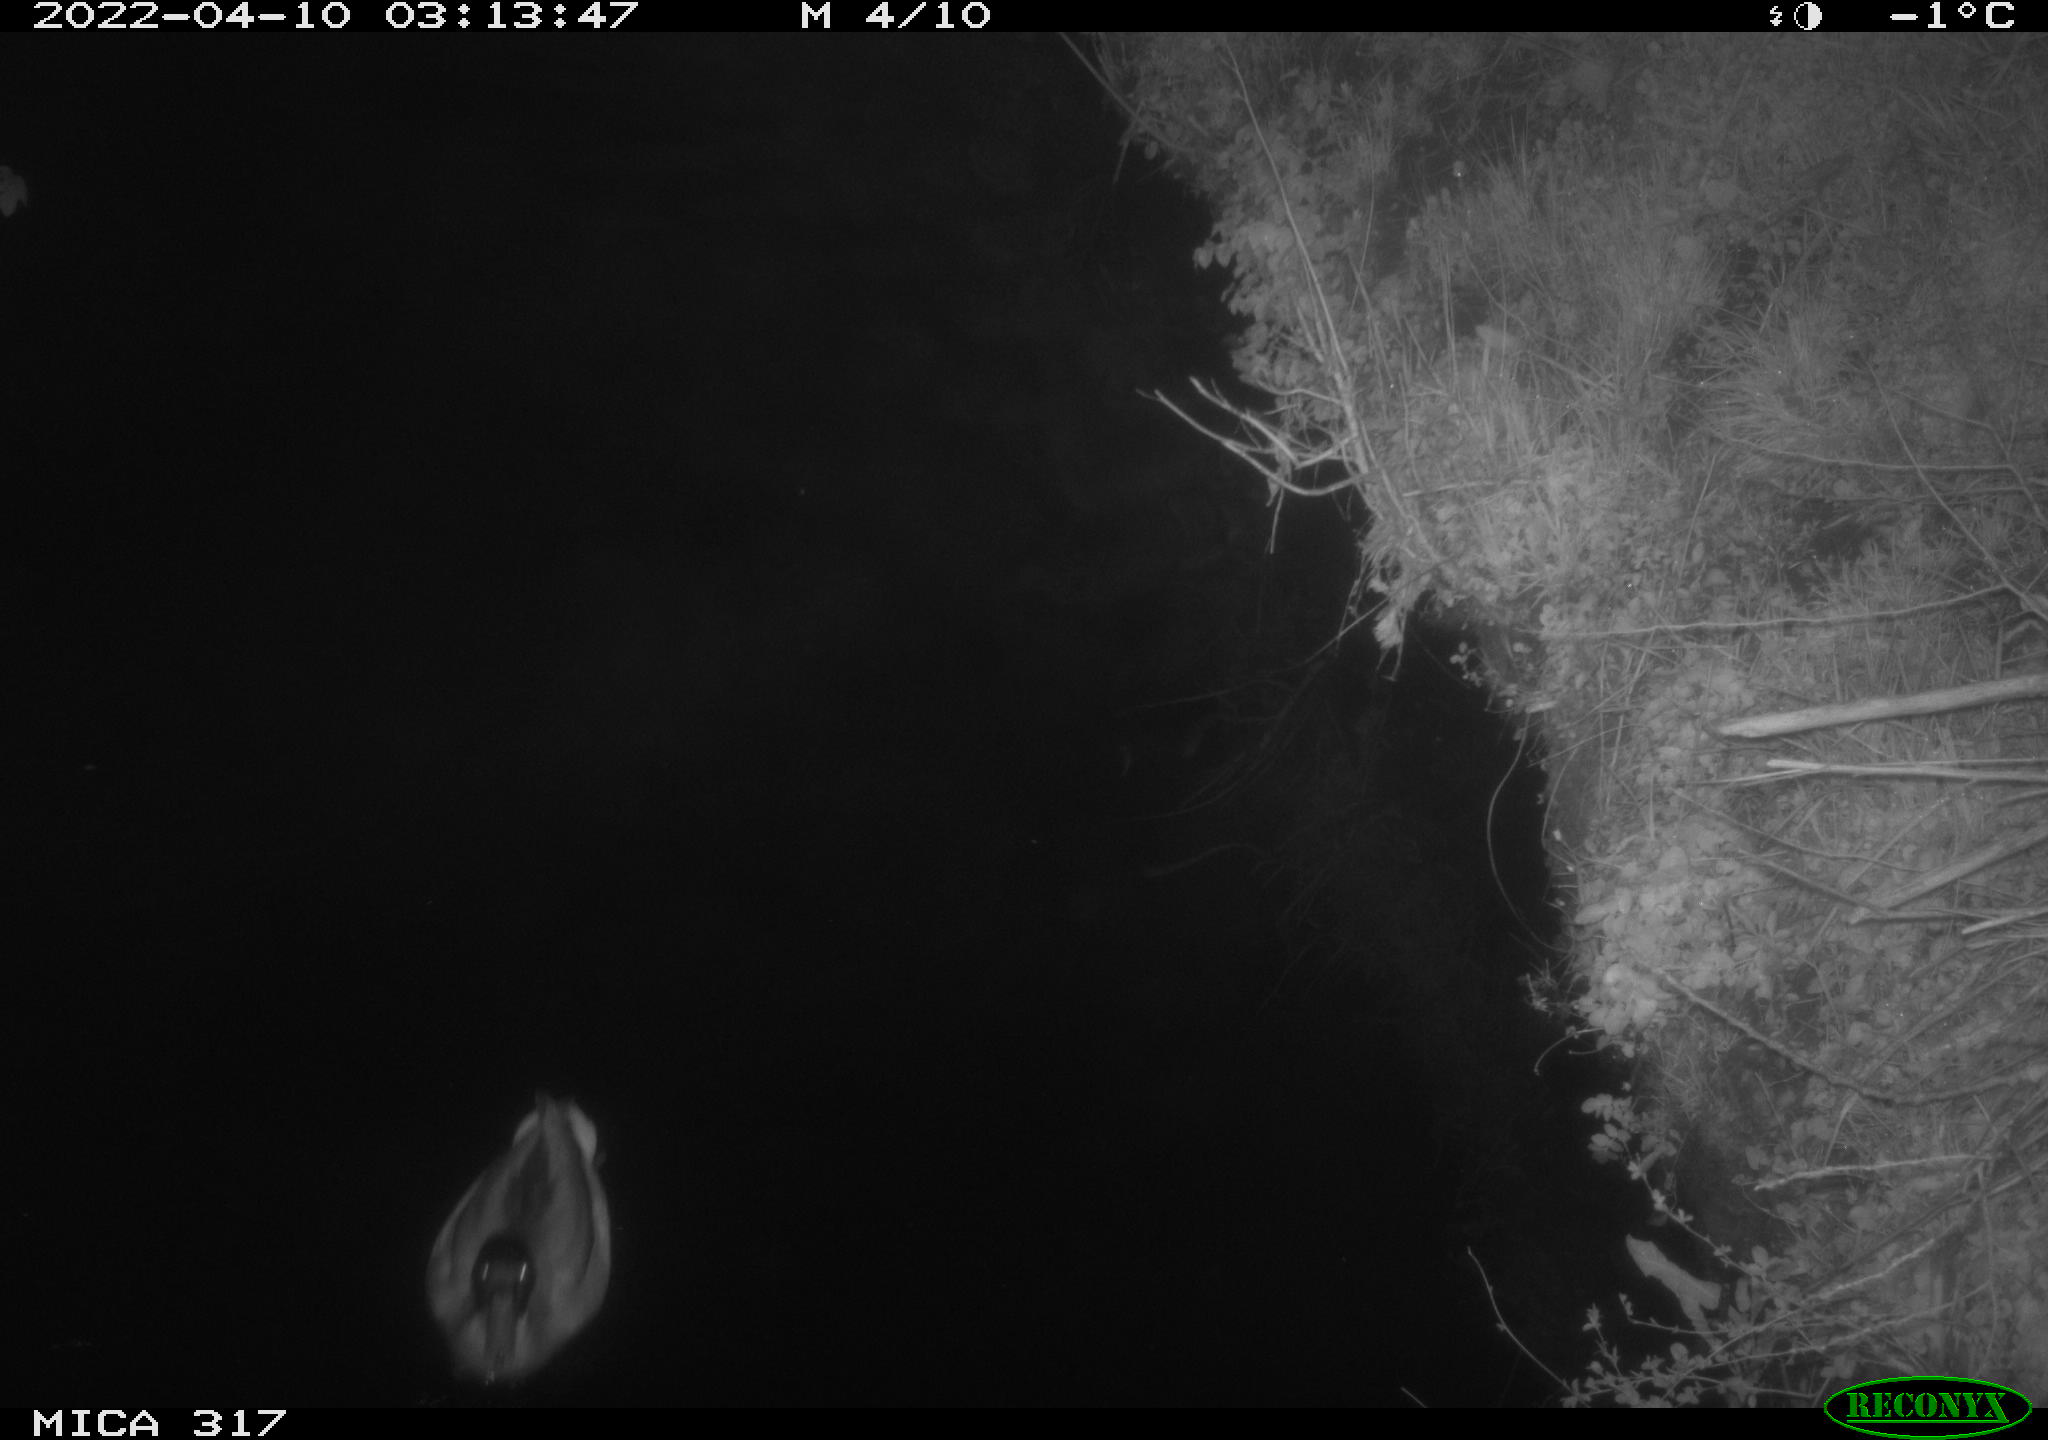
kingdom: Animalia
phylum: Chordata
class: Aves
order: Anseriformes
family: Anatidae
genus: Anas
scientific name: Anas platyrhynchos
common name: Mallard
